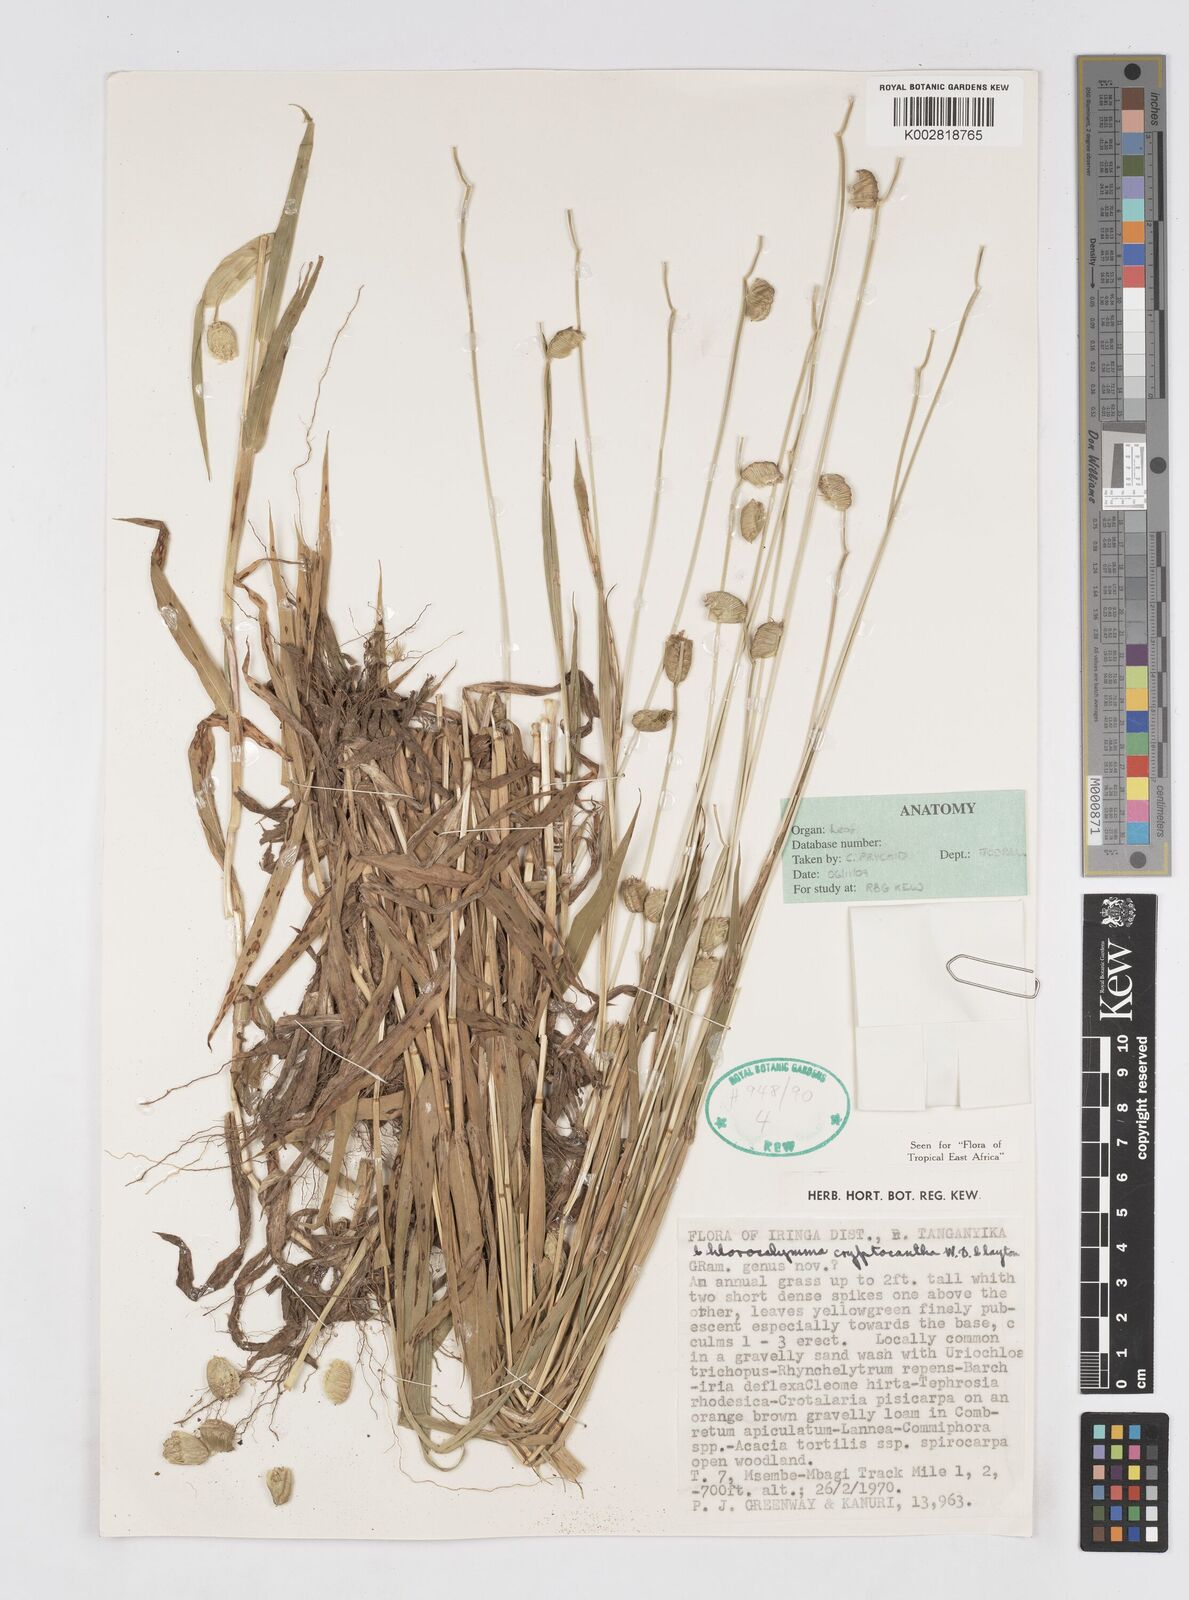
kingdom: Plantae
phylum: Tracheophyta
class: Liliopsida
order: Poales
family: Poaceae
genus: Chlorocalymma
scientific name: Chlorocalymma cryptacanthum
